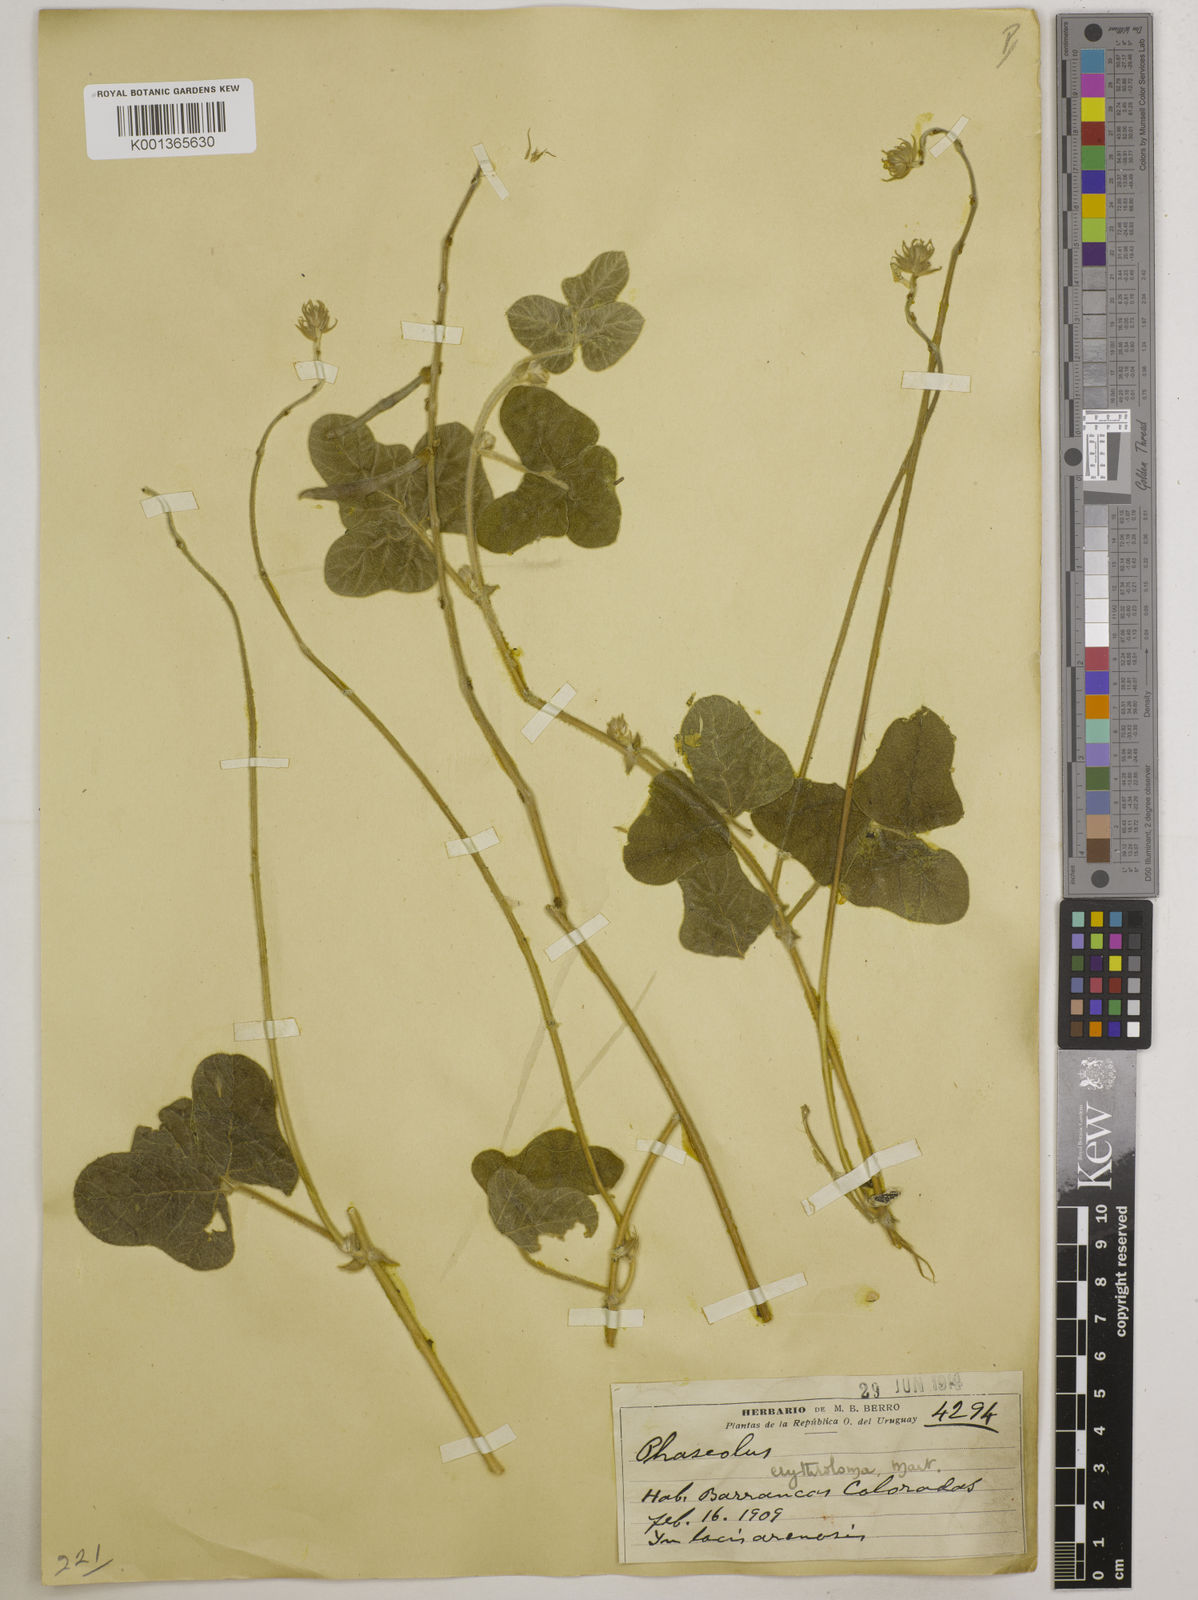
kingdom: Plantae
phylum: Tracheophyta
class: Magnoliopsida
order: Fabales
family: Fabaceae
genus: Macroptilium
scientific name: Macroptilium erythroloma
